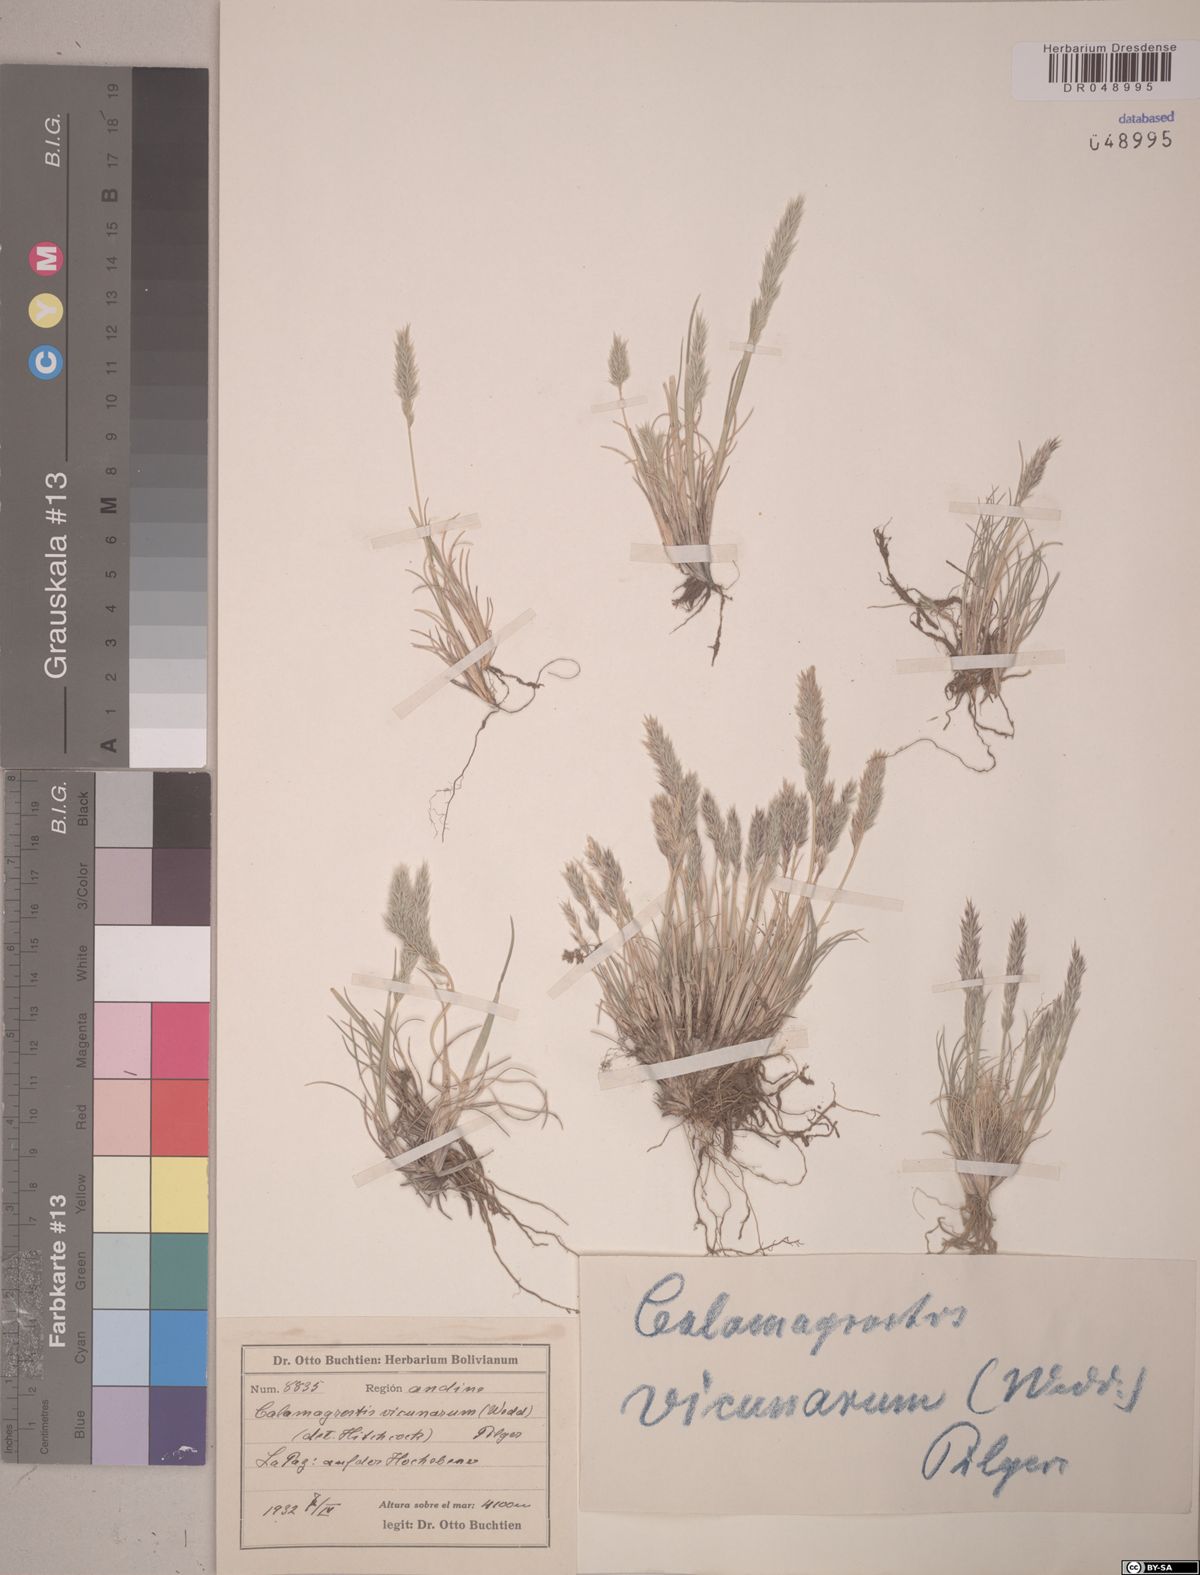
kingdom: Plantae
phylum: Tracheophyta
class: Liliopsida
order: Poales
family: Poaceae
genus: Cinnagrostis
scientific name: Cinnagrostis vicunarum
